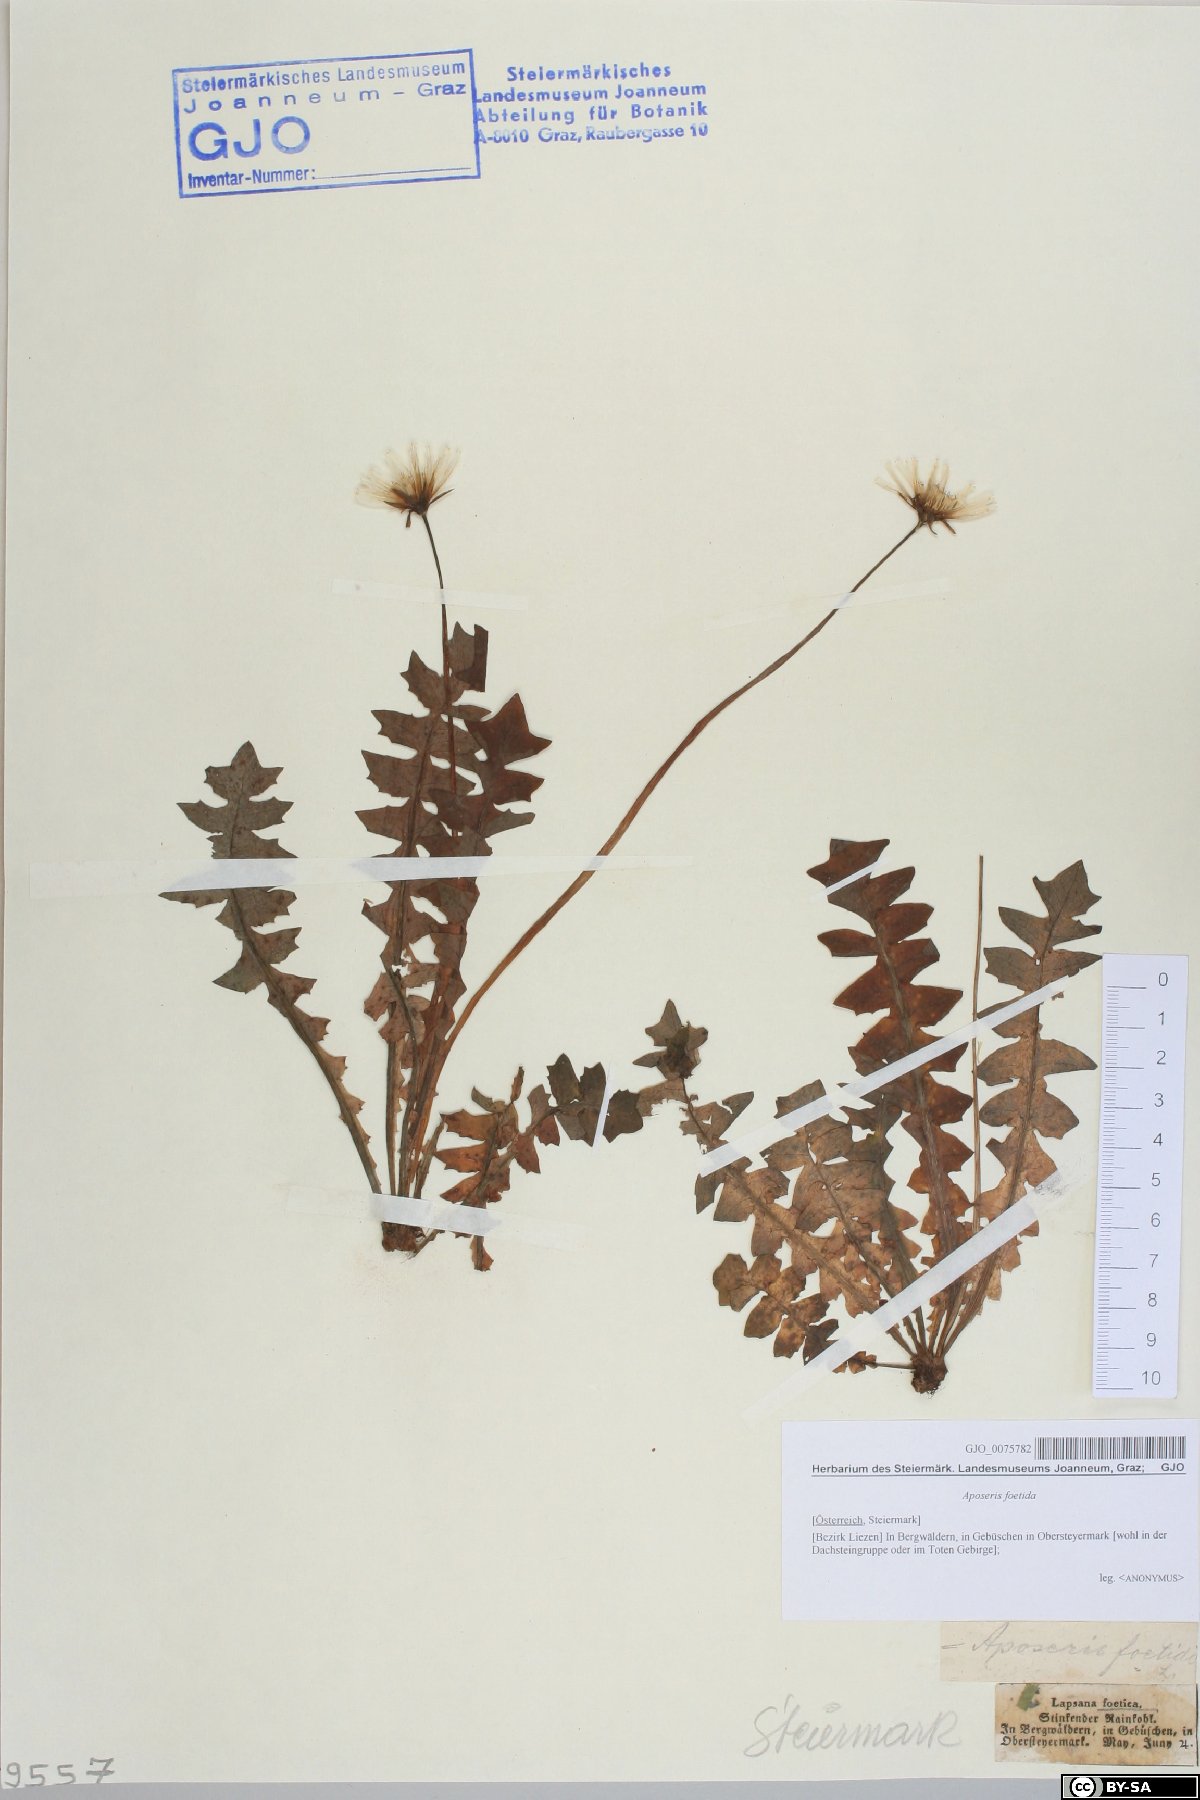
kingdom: Plantae
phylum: Tracheophyta
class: Magnoliopsida
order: Asterales
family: Asteraceae
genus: Aposeris
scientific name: Aposeris foetida
